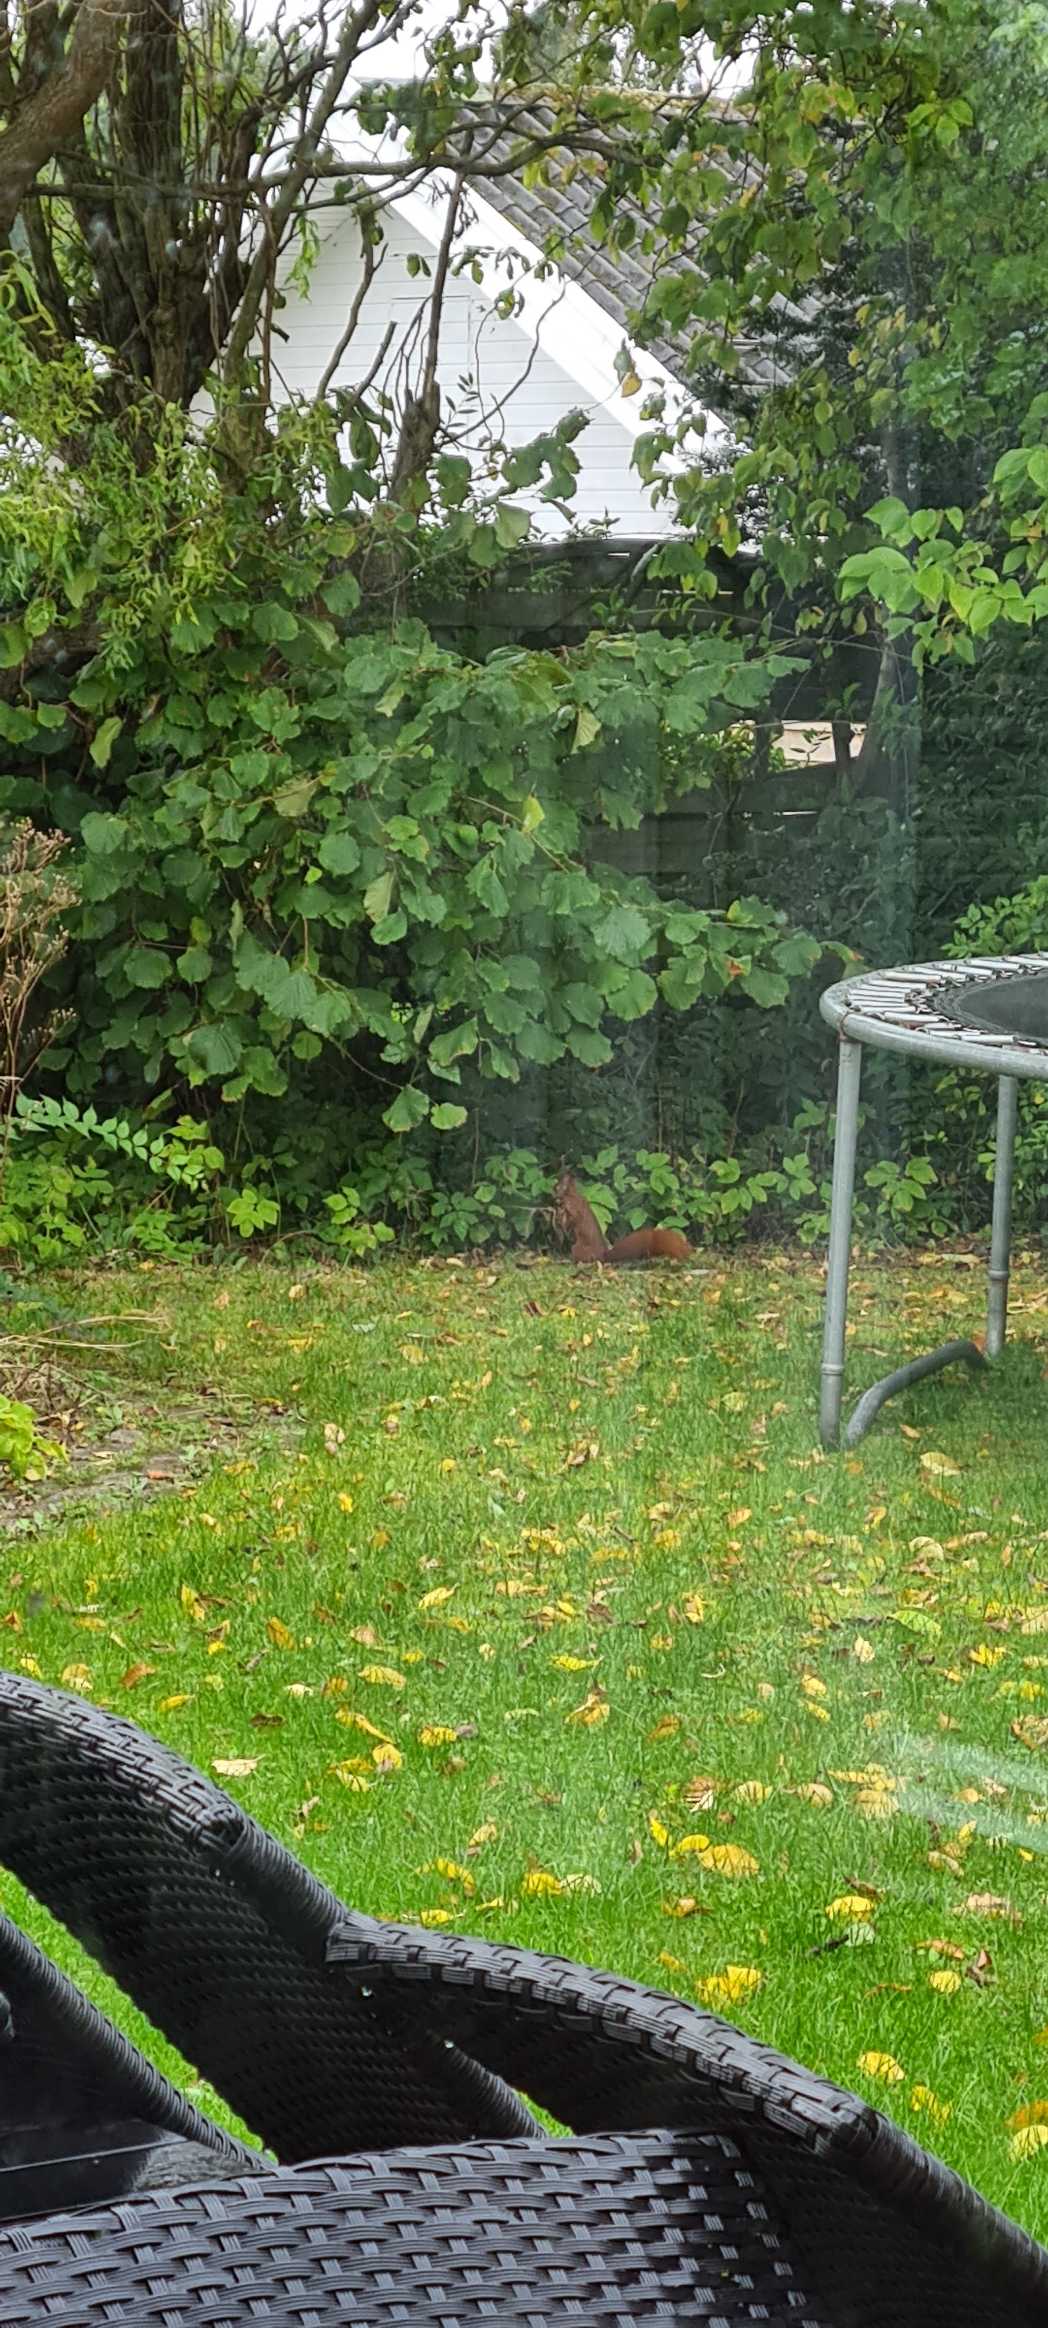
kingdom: Animalia
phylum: Chordata
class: Mammalia
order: Rodentia
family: Sciuridae
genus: Sciurus
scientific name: Sciurus vulgaris
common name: Egern
